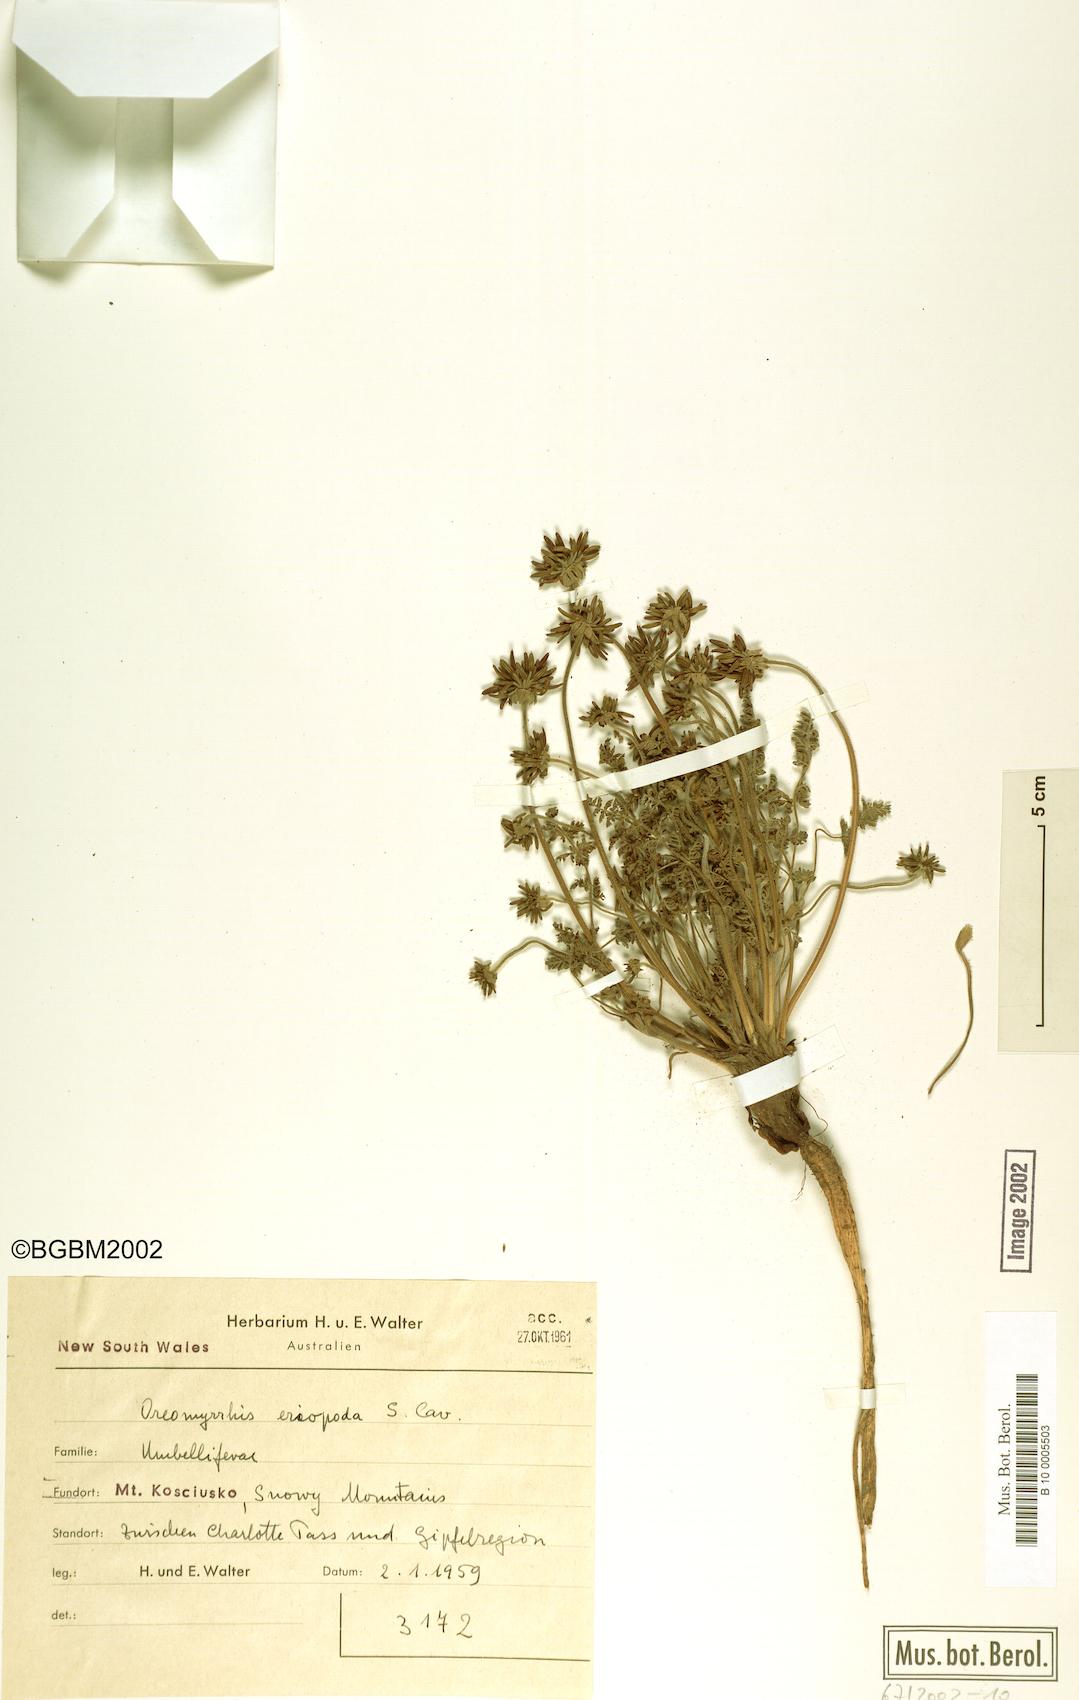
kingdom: Plantae
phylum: Tracheophyta
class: Magnoliopsida
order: Apiales
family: Apiaceae
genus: Chaerophyllum
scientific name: Chaerophyllum buwaldianum
